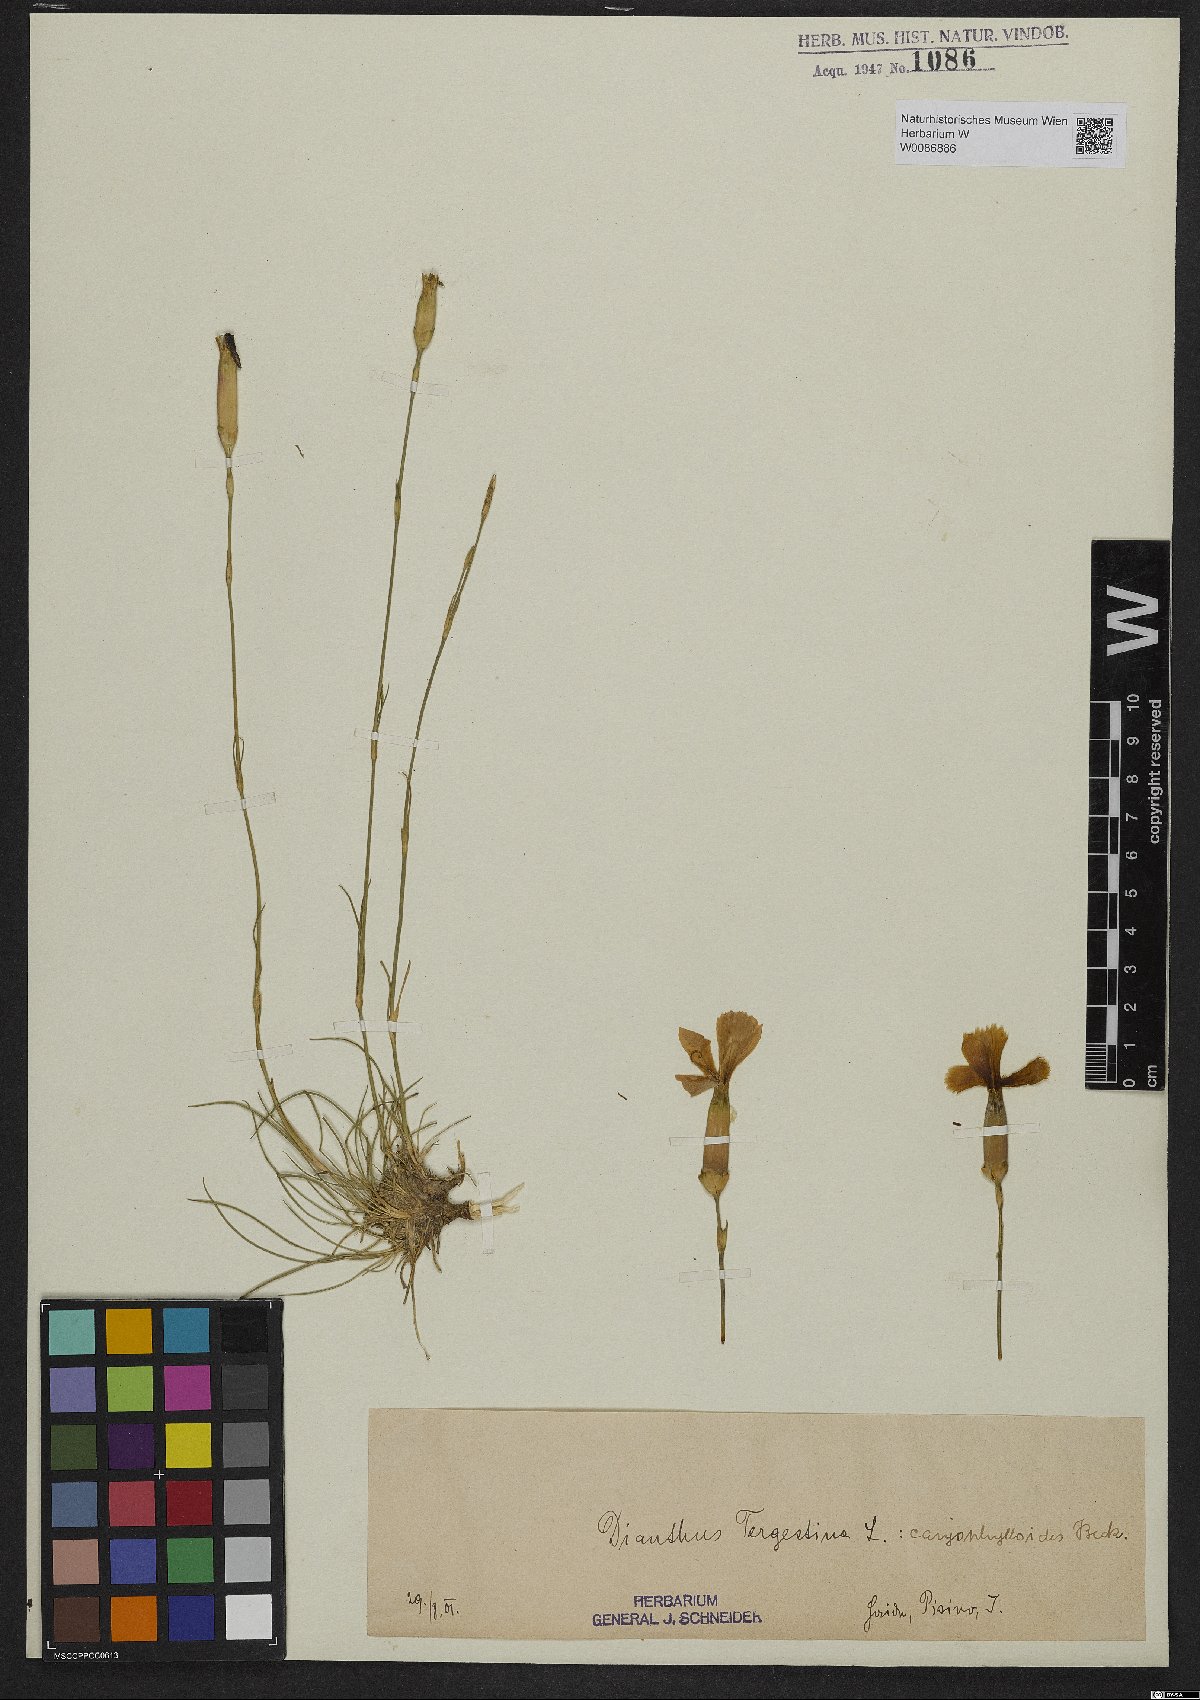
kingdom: Plantae
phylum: Tracheophyta
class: Magnoliopsida
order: Caryophyllales
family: Caryophyllaceae
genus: Dianthus
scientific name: Dianthus sylvestris
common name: Wood pink
